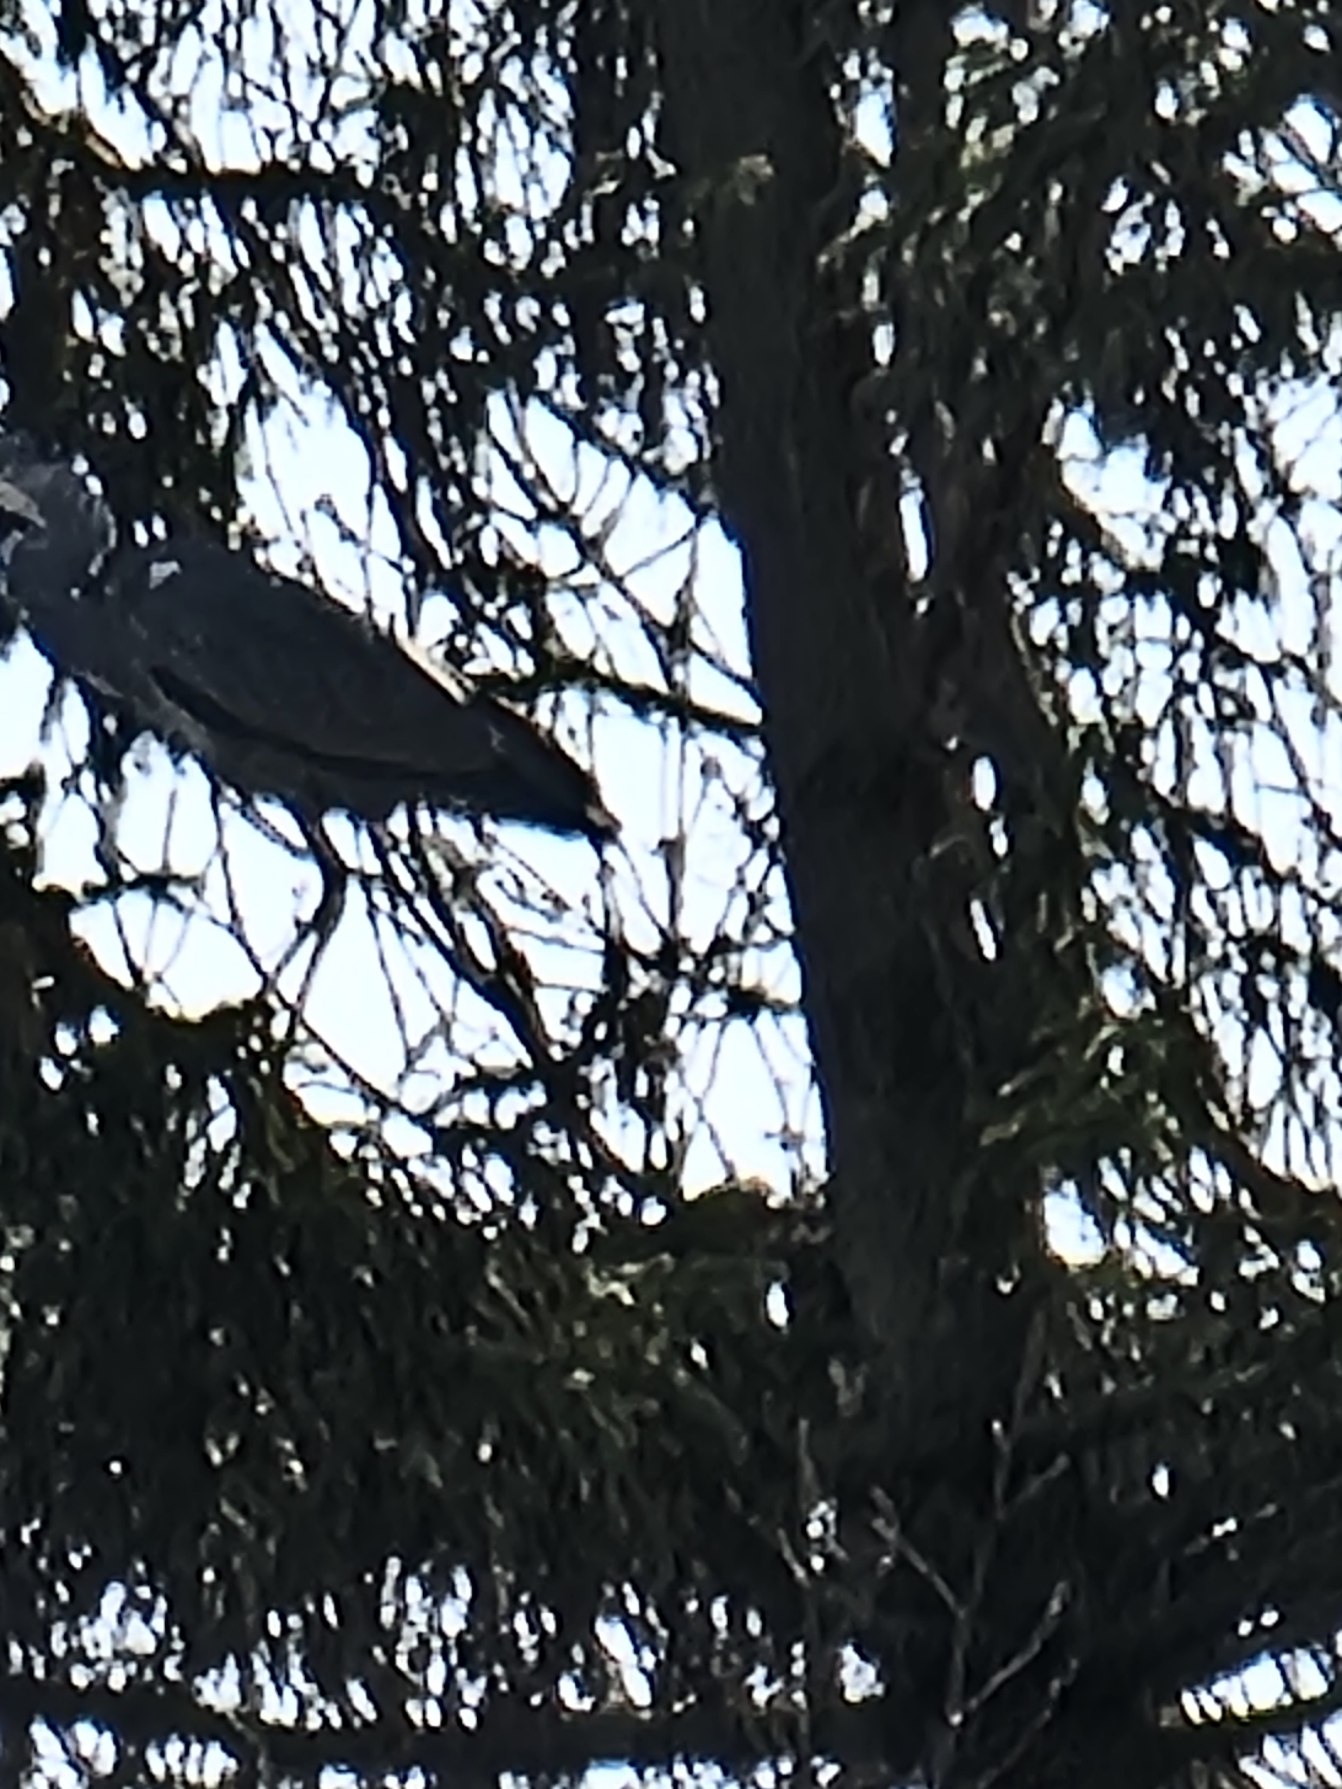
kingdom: Animalia
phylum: Chordata
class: Aves
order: Pelecaniformes
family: Ardeidae
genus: Ardea
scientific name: Ardea cinerea
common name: Fiskehejre
